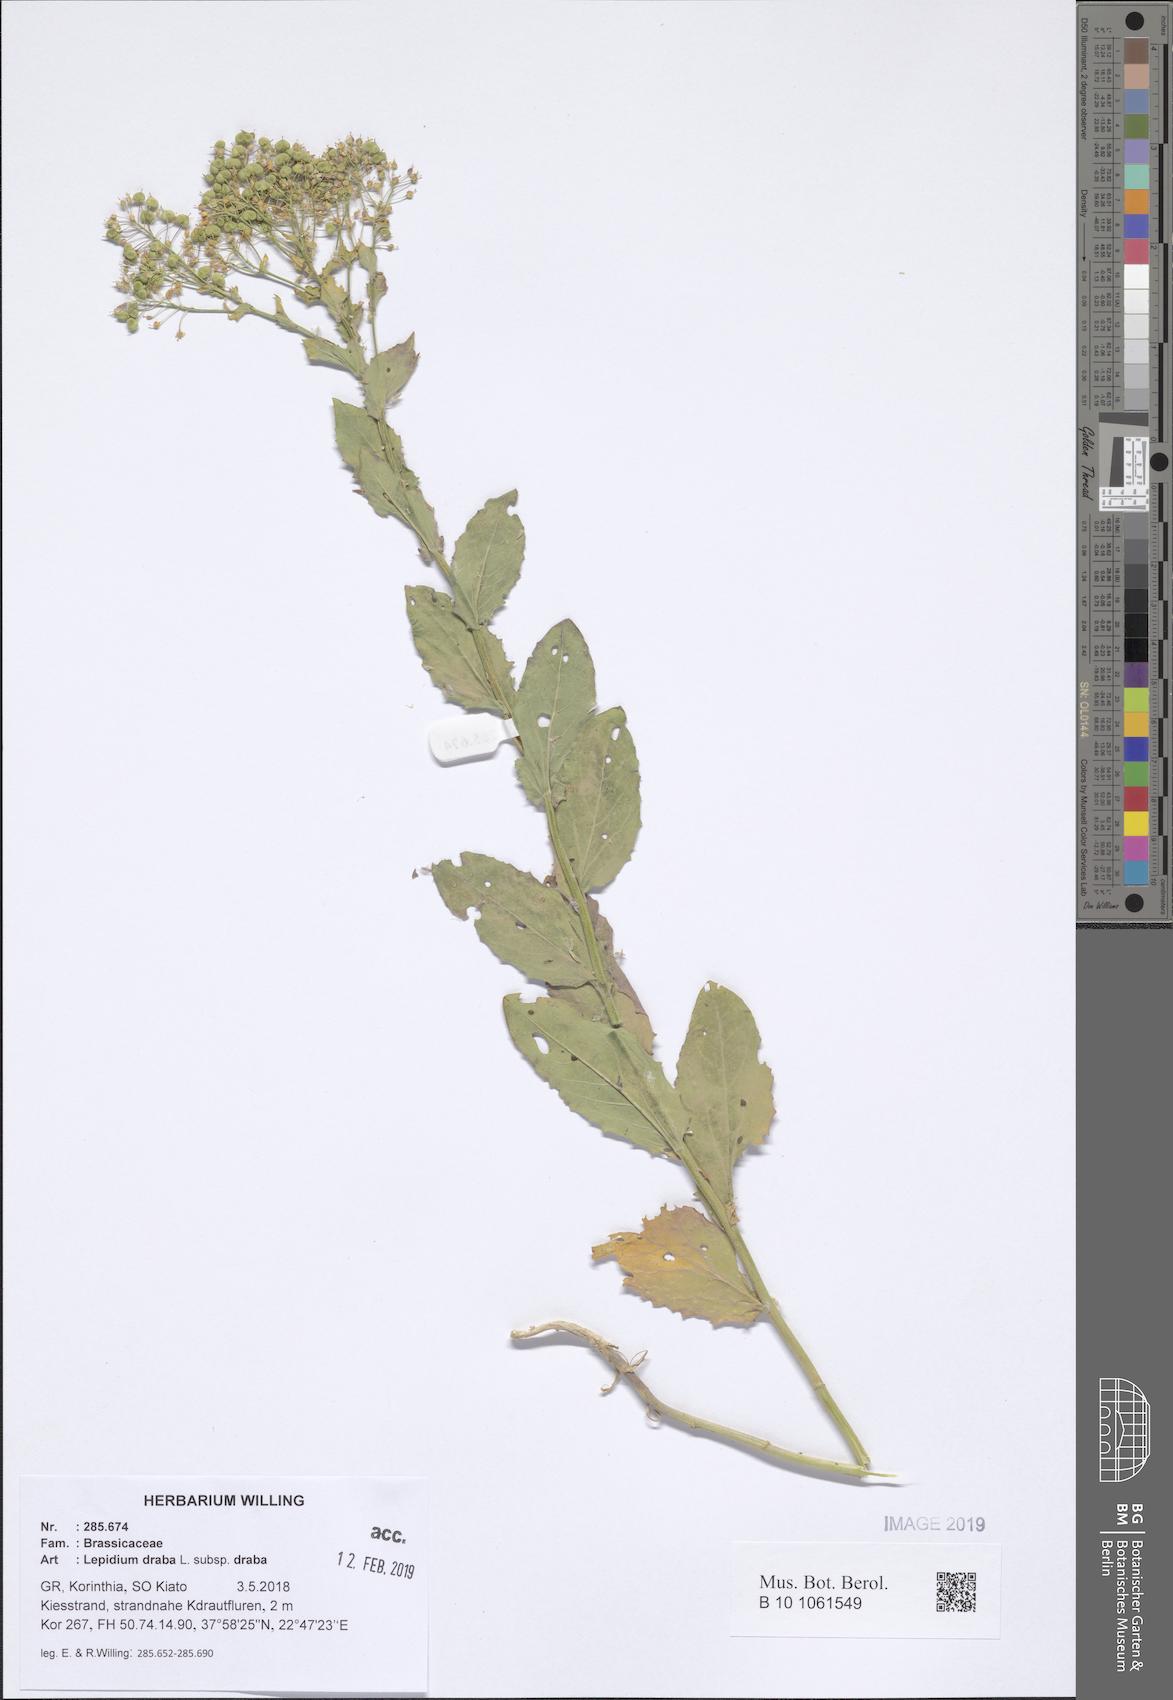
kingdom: Plantae
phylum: Tracheophyta
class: Magnoliopsida
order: Brassicales
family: Brassicaceae
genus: Lepidium
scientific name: Lepidium draba
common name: Hoary cress
